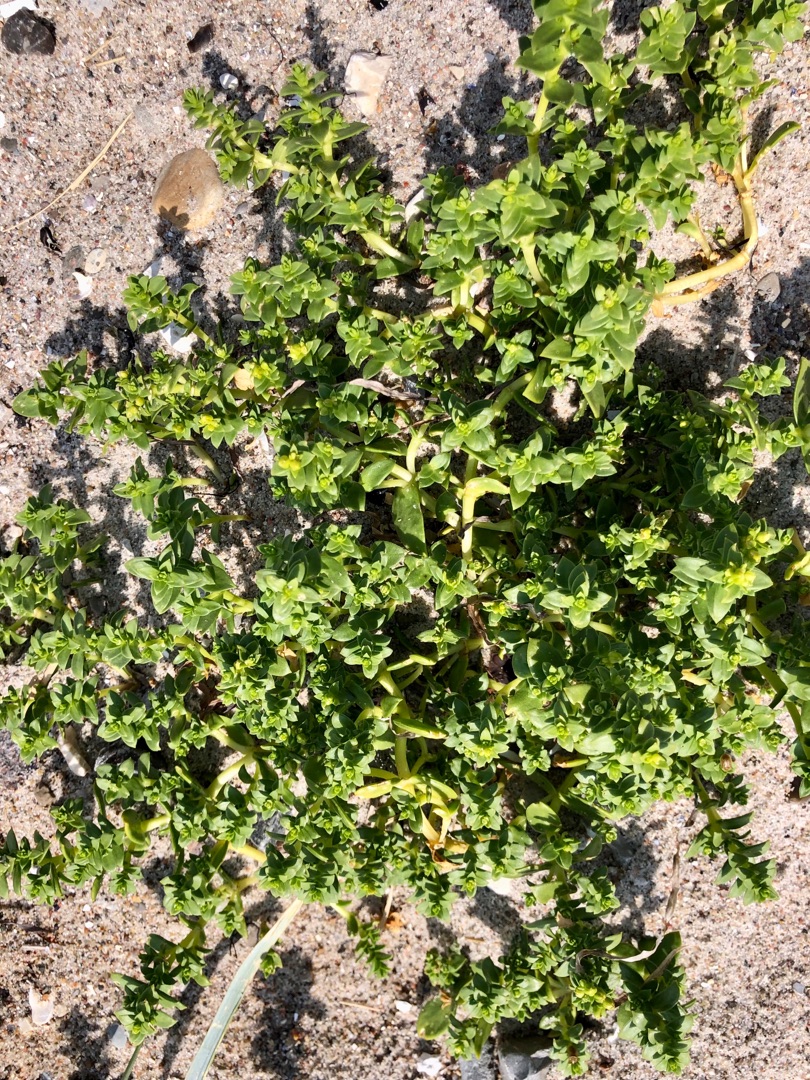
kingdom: Plantae
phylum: Tracheophyta
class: Magnoliopsida
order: Caryophyllales
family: Caryophyllaceae
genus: Honckenya
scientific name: Honckenya peploides
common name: Strandarve
